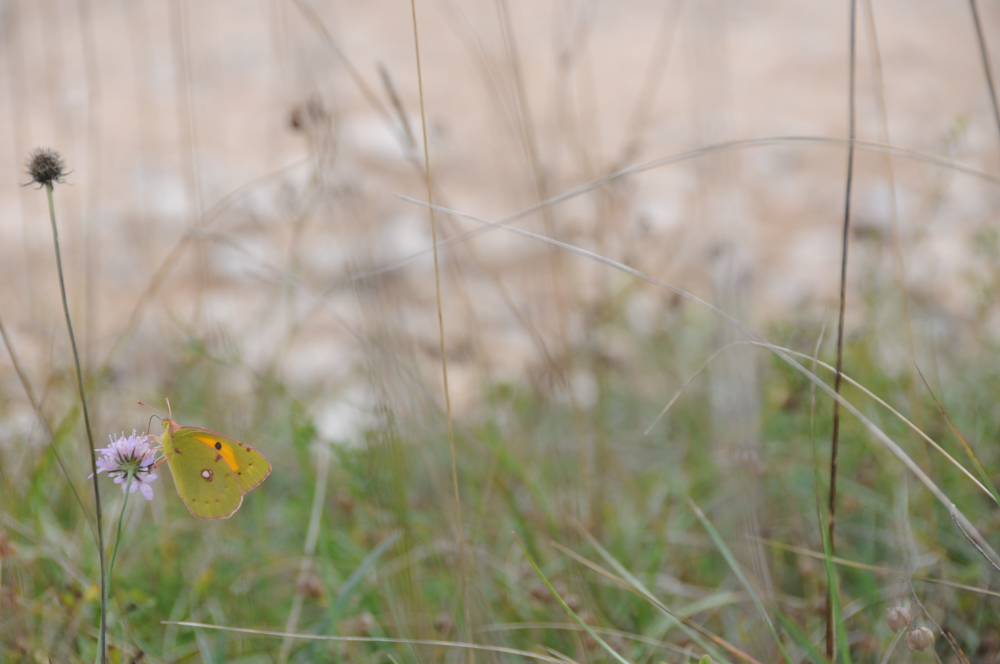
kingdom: Animalia
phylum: Arthropoda
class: Insecta
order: Lepidoptera
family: Pieridae
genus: Colias
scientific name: Colias alfacariensis
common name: Berger's clouded yellow
